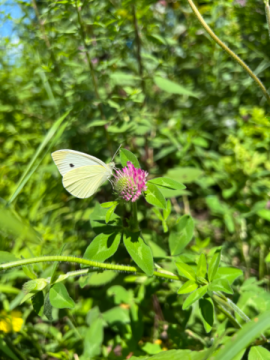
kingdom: Animalia
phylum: Arthropoda
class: Insecta
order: Lepidoptera
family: Pieridae
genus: Pieris
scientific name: Pieris rapae
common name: Cabbage White
